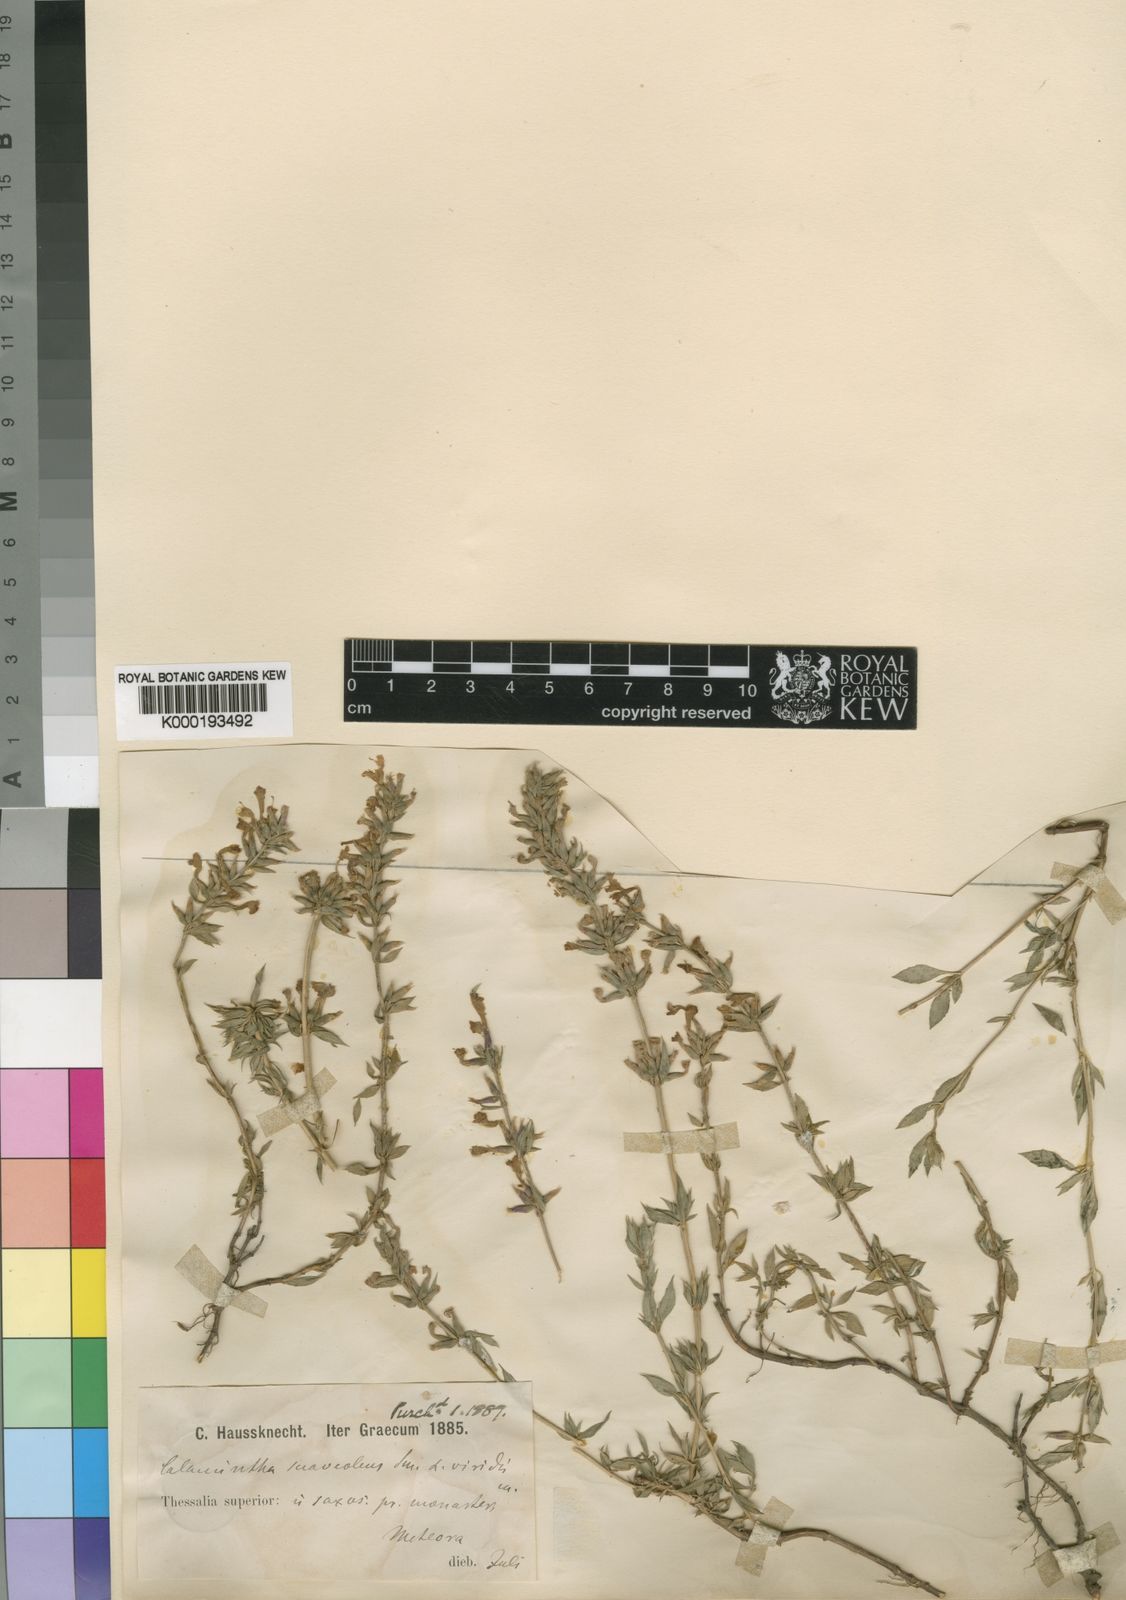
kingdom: Plantae
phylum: Tracheophyta
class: Magnoliopsida
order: Lamiales
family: Lamiaceae
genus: Clinopodium
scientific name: Clinopodium suaveolens
